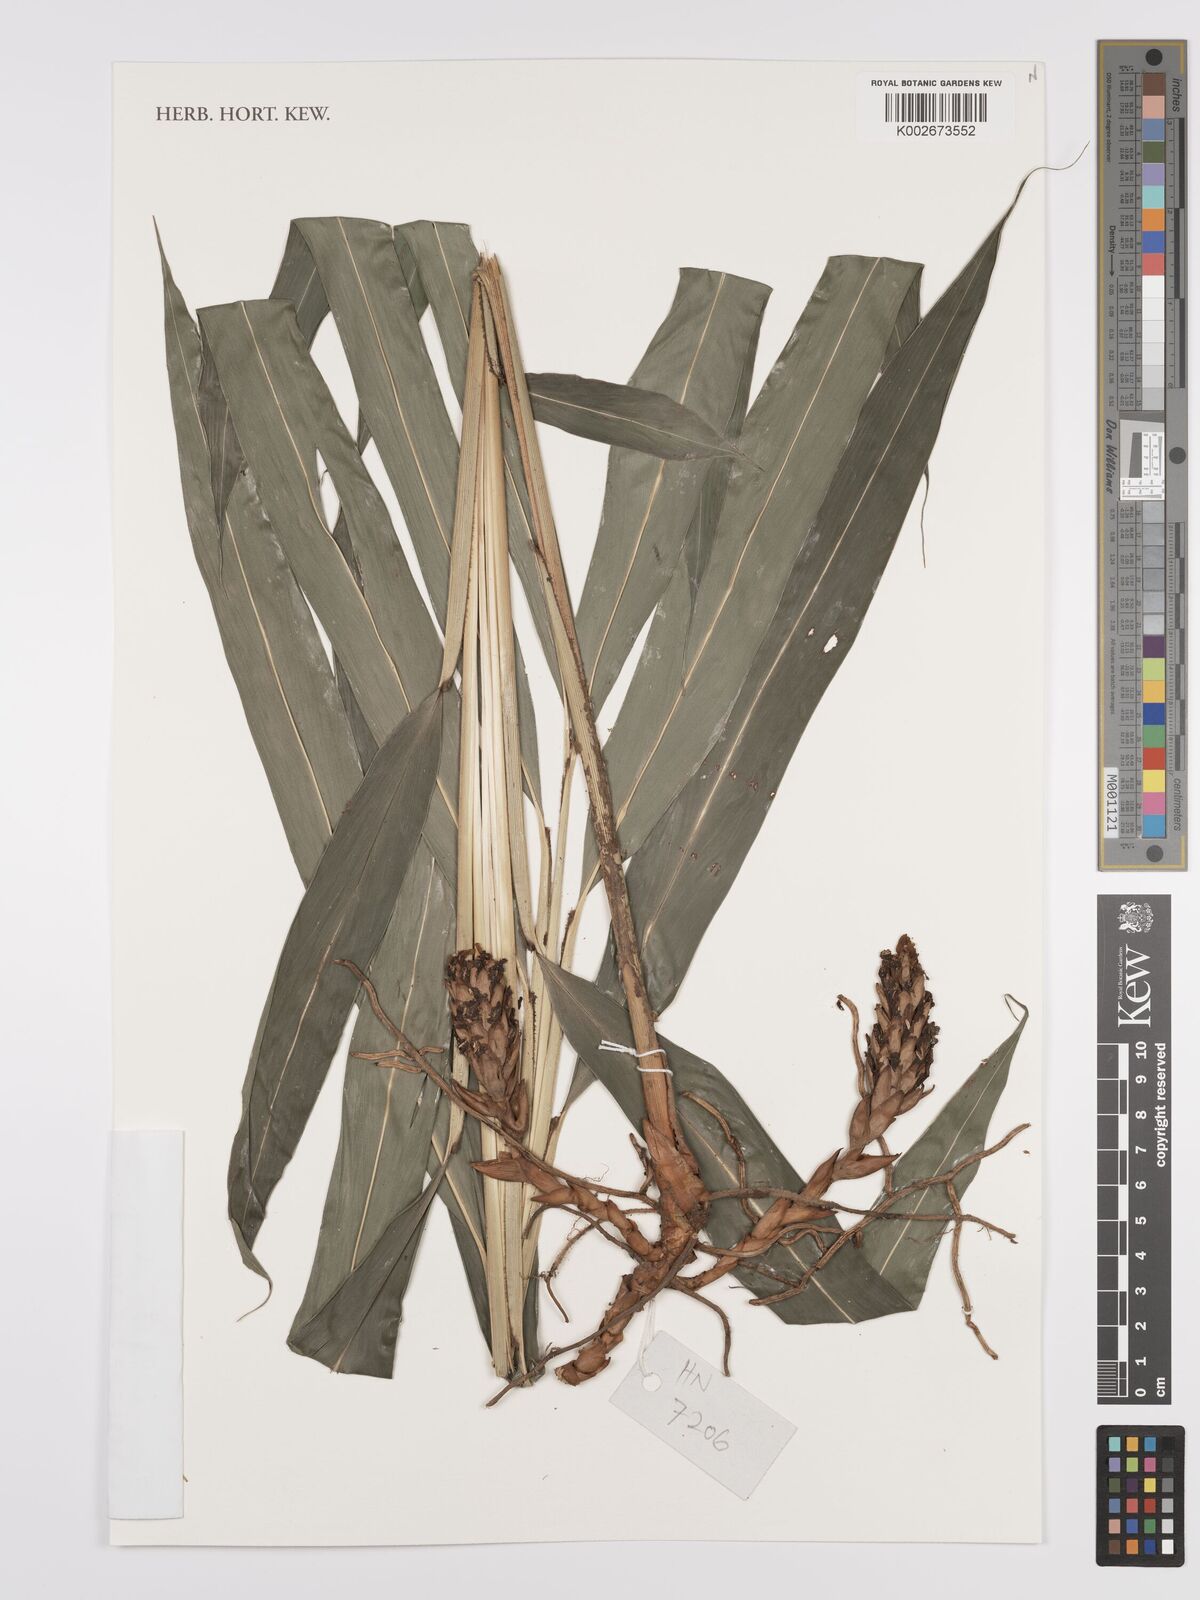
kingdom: Plantae
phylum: Tracheophyta
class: Liliopsida
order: Zingiberales
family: Zingiberaceae
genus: Amomum
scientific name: Amomum
